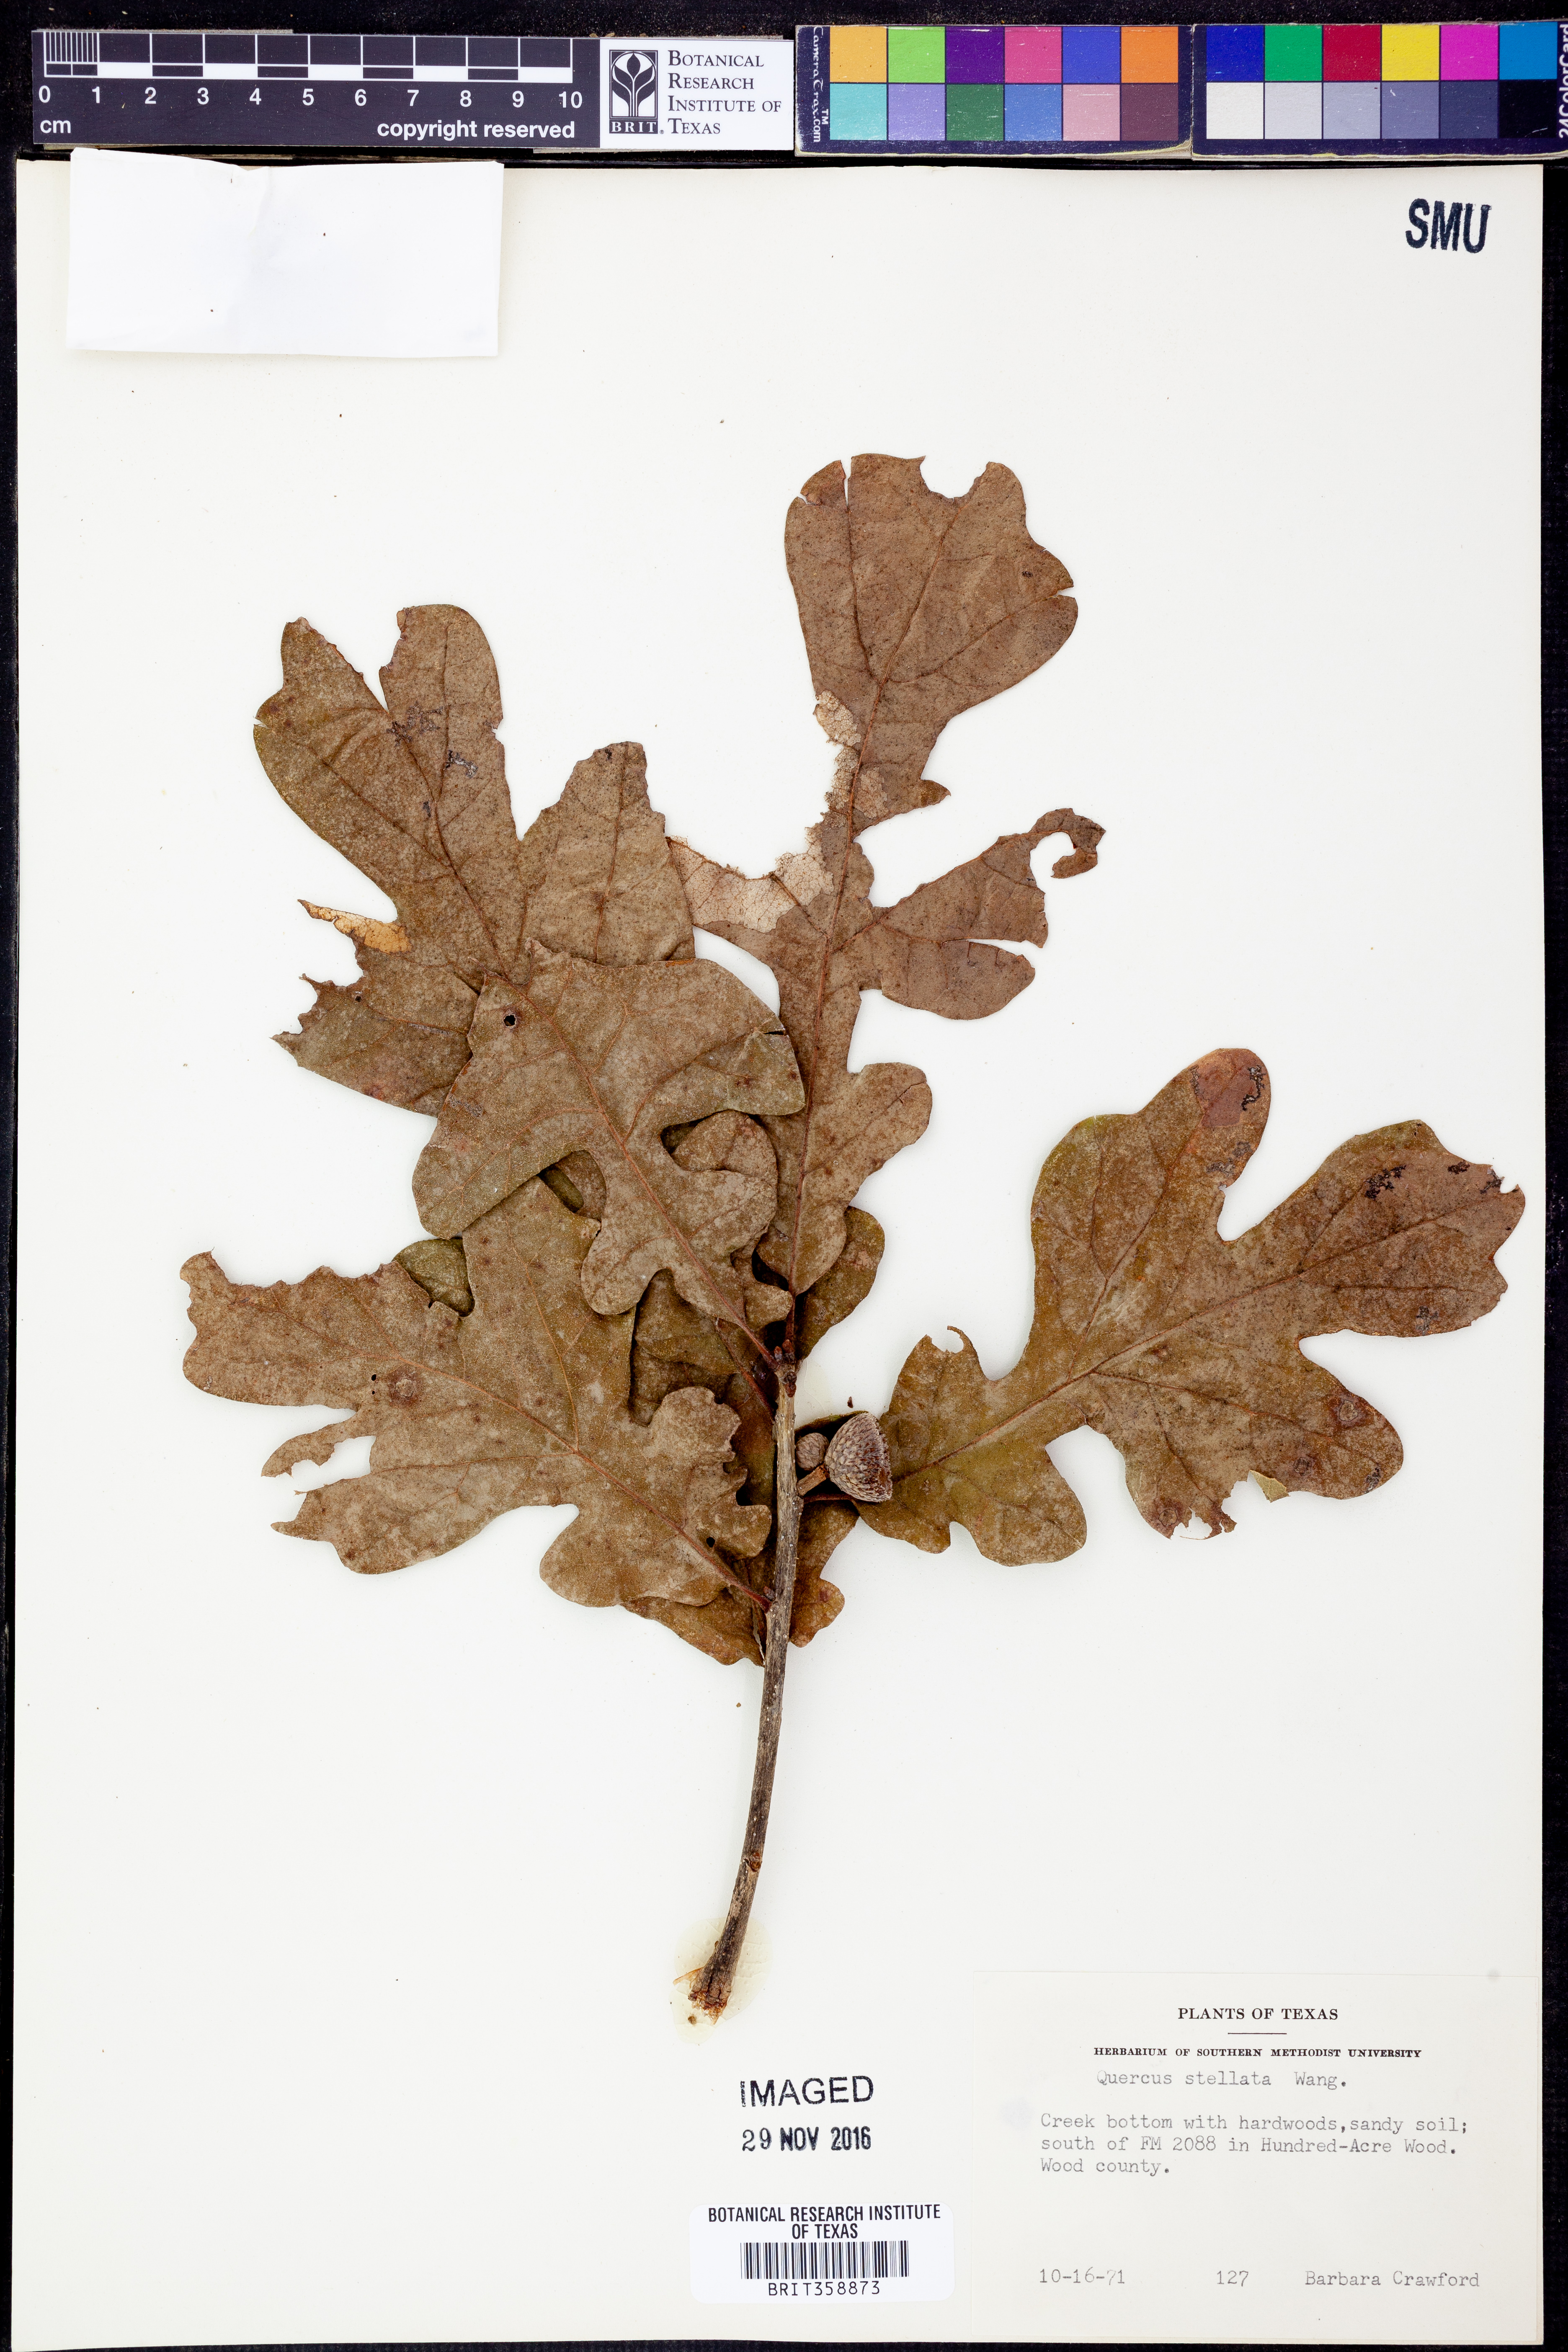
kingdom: Plantae
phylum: Tracheophyta
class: Magnoliopsida
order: Fagales
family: Fagaceae
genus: Quercus
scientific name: Quercus stellata
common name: Post oak
